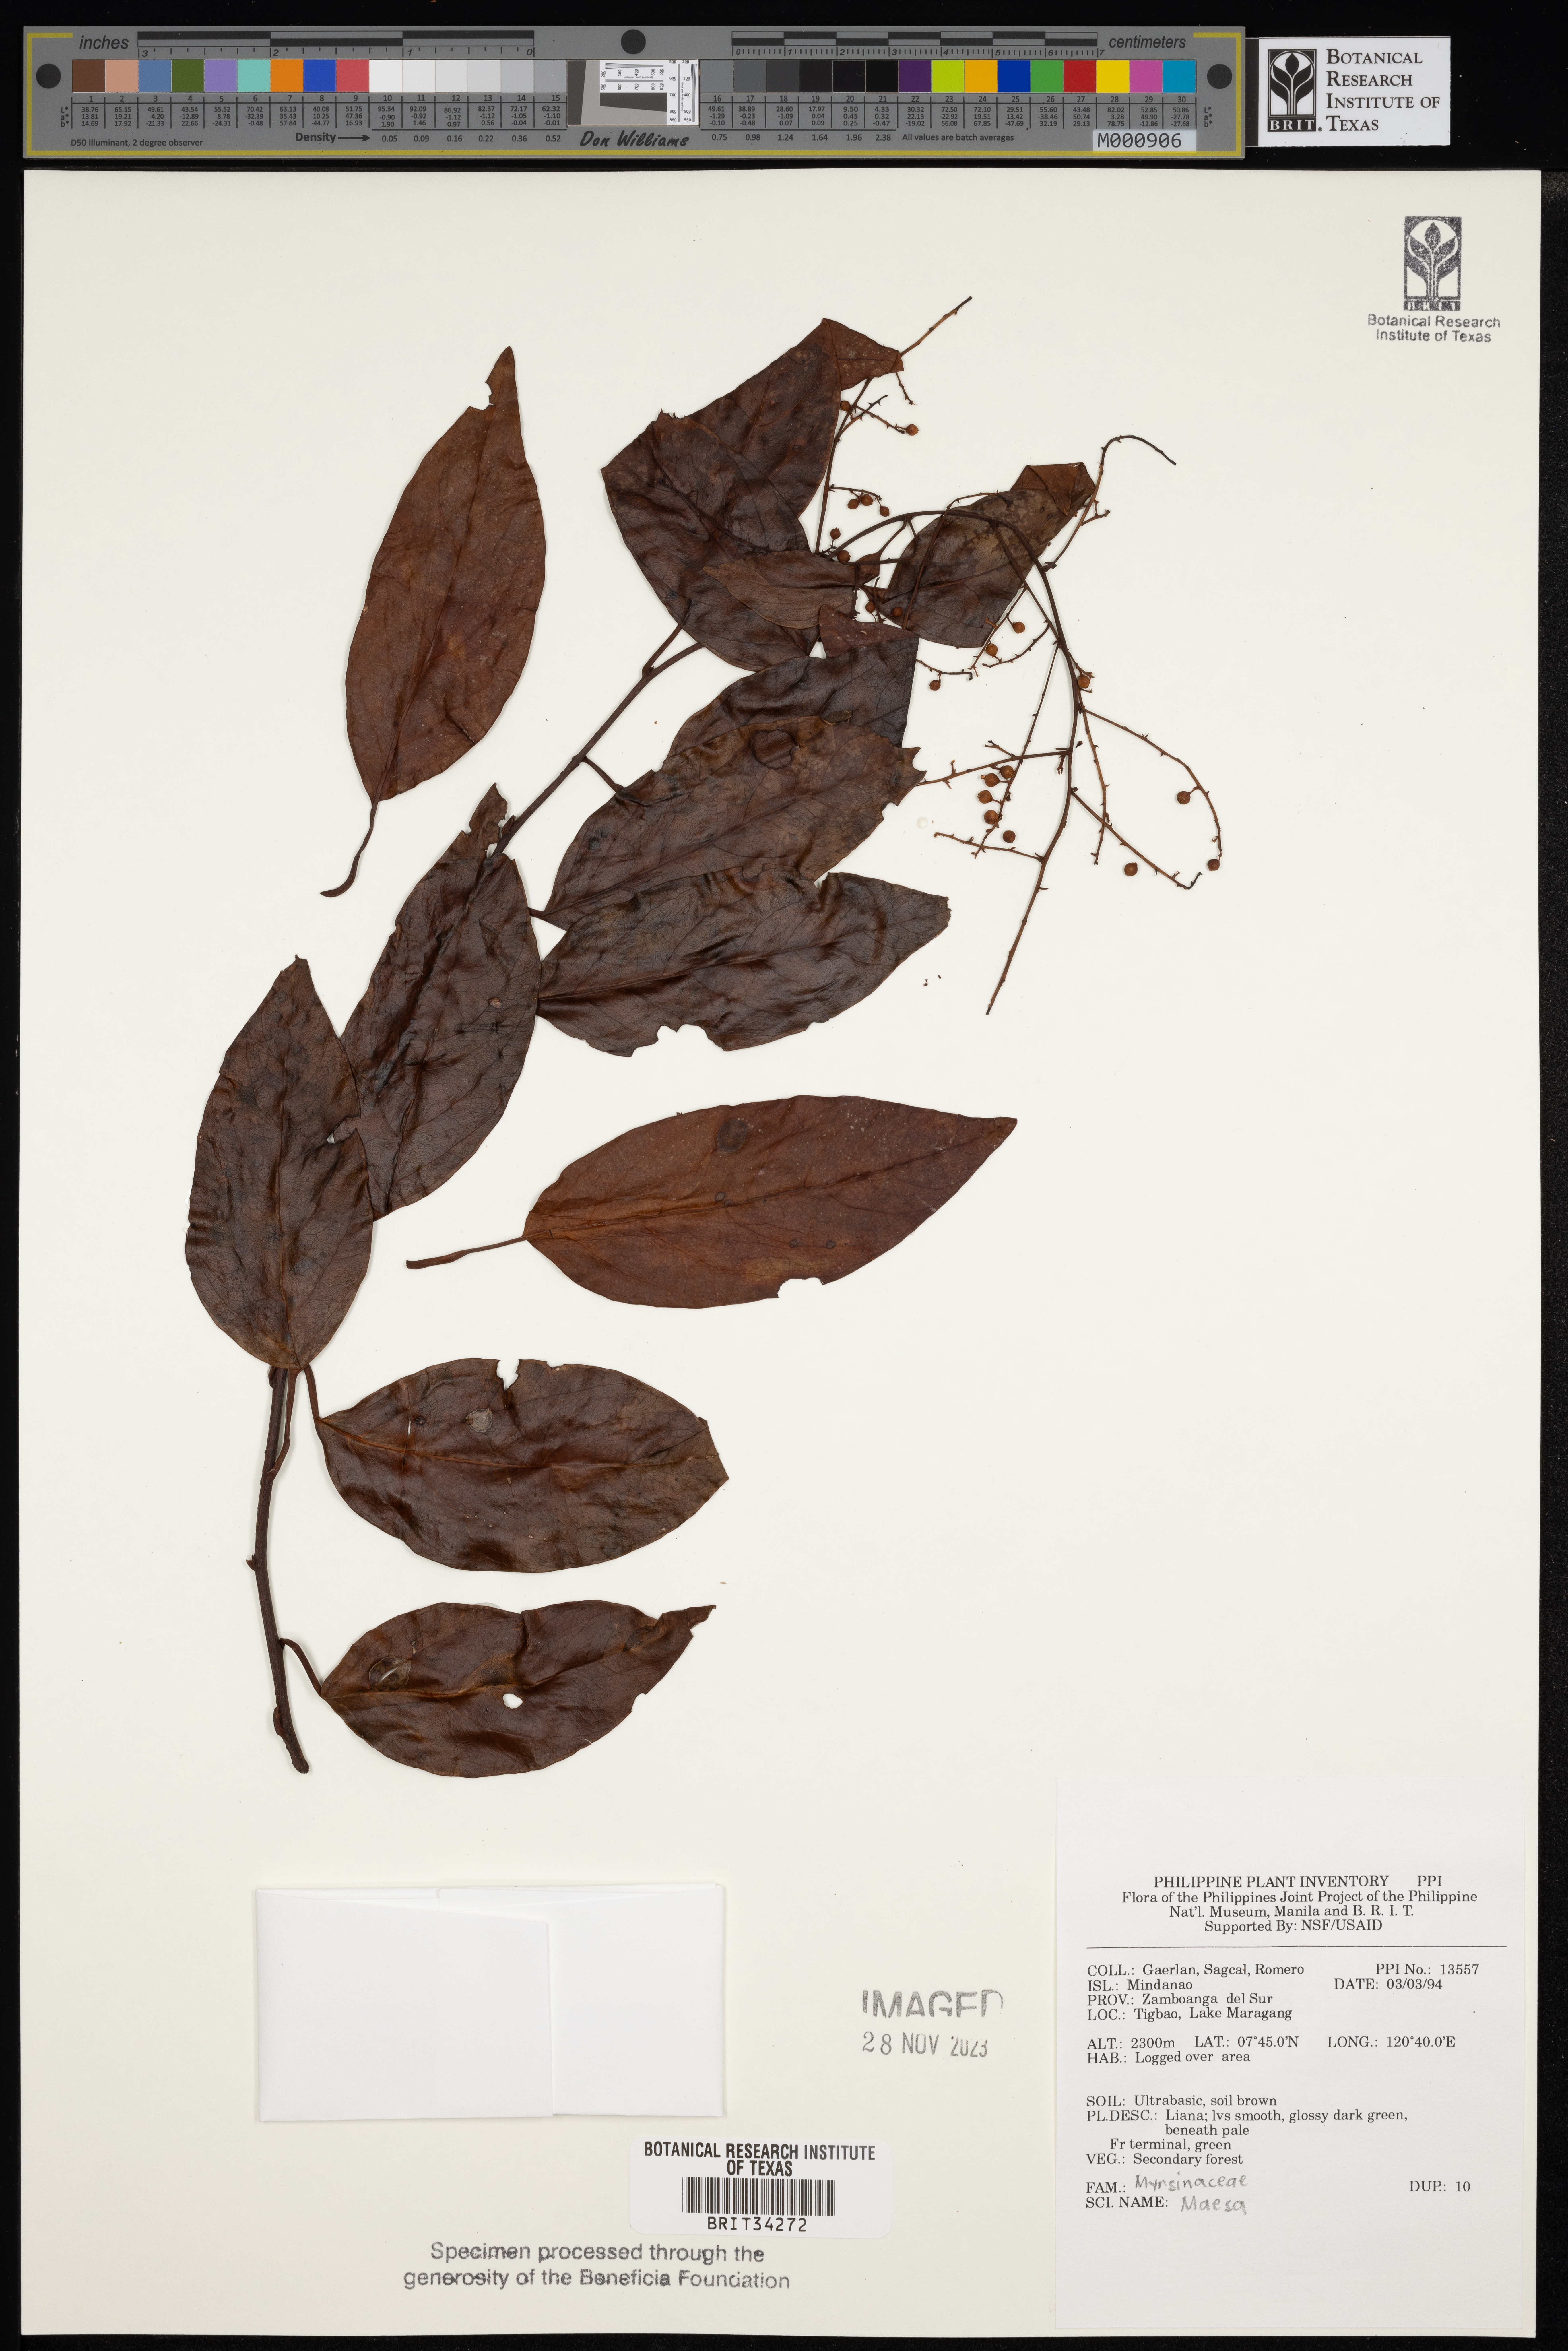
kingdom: Plantae
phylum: Tracheophyta
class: Magnoliopsida
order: Ericales
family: Primulaceae
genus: Maesa
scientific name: Maesa
